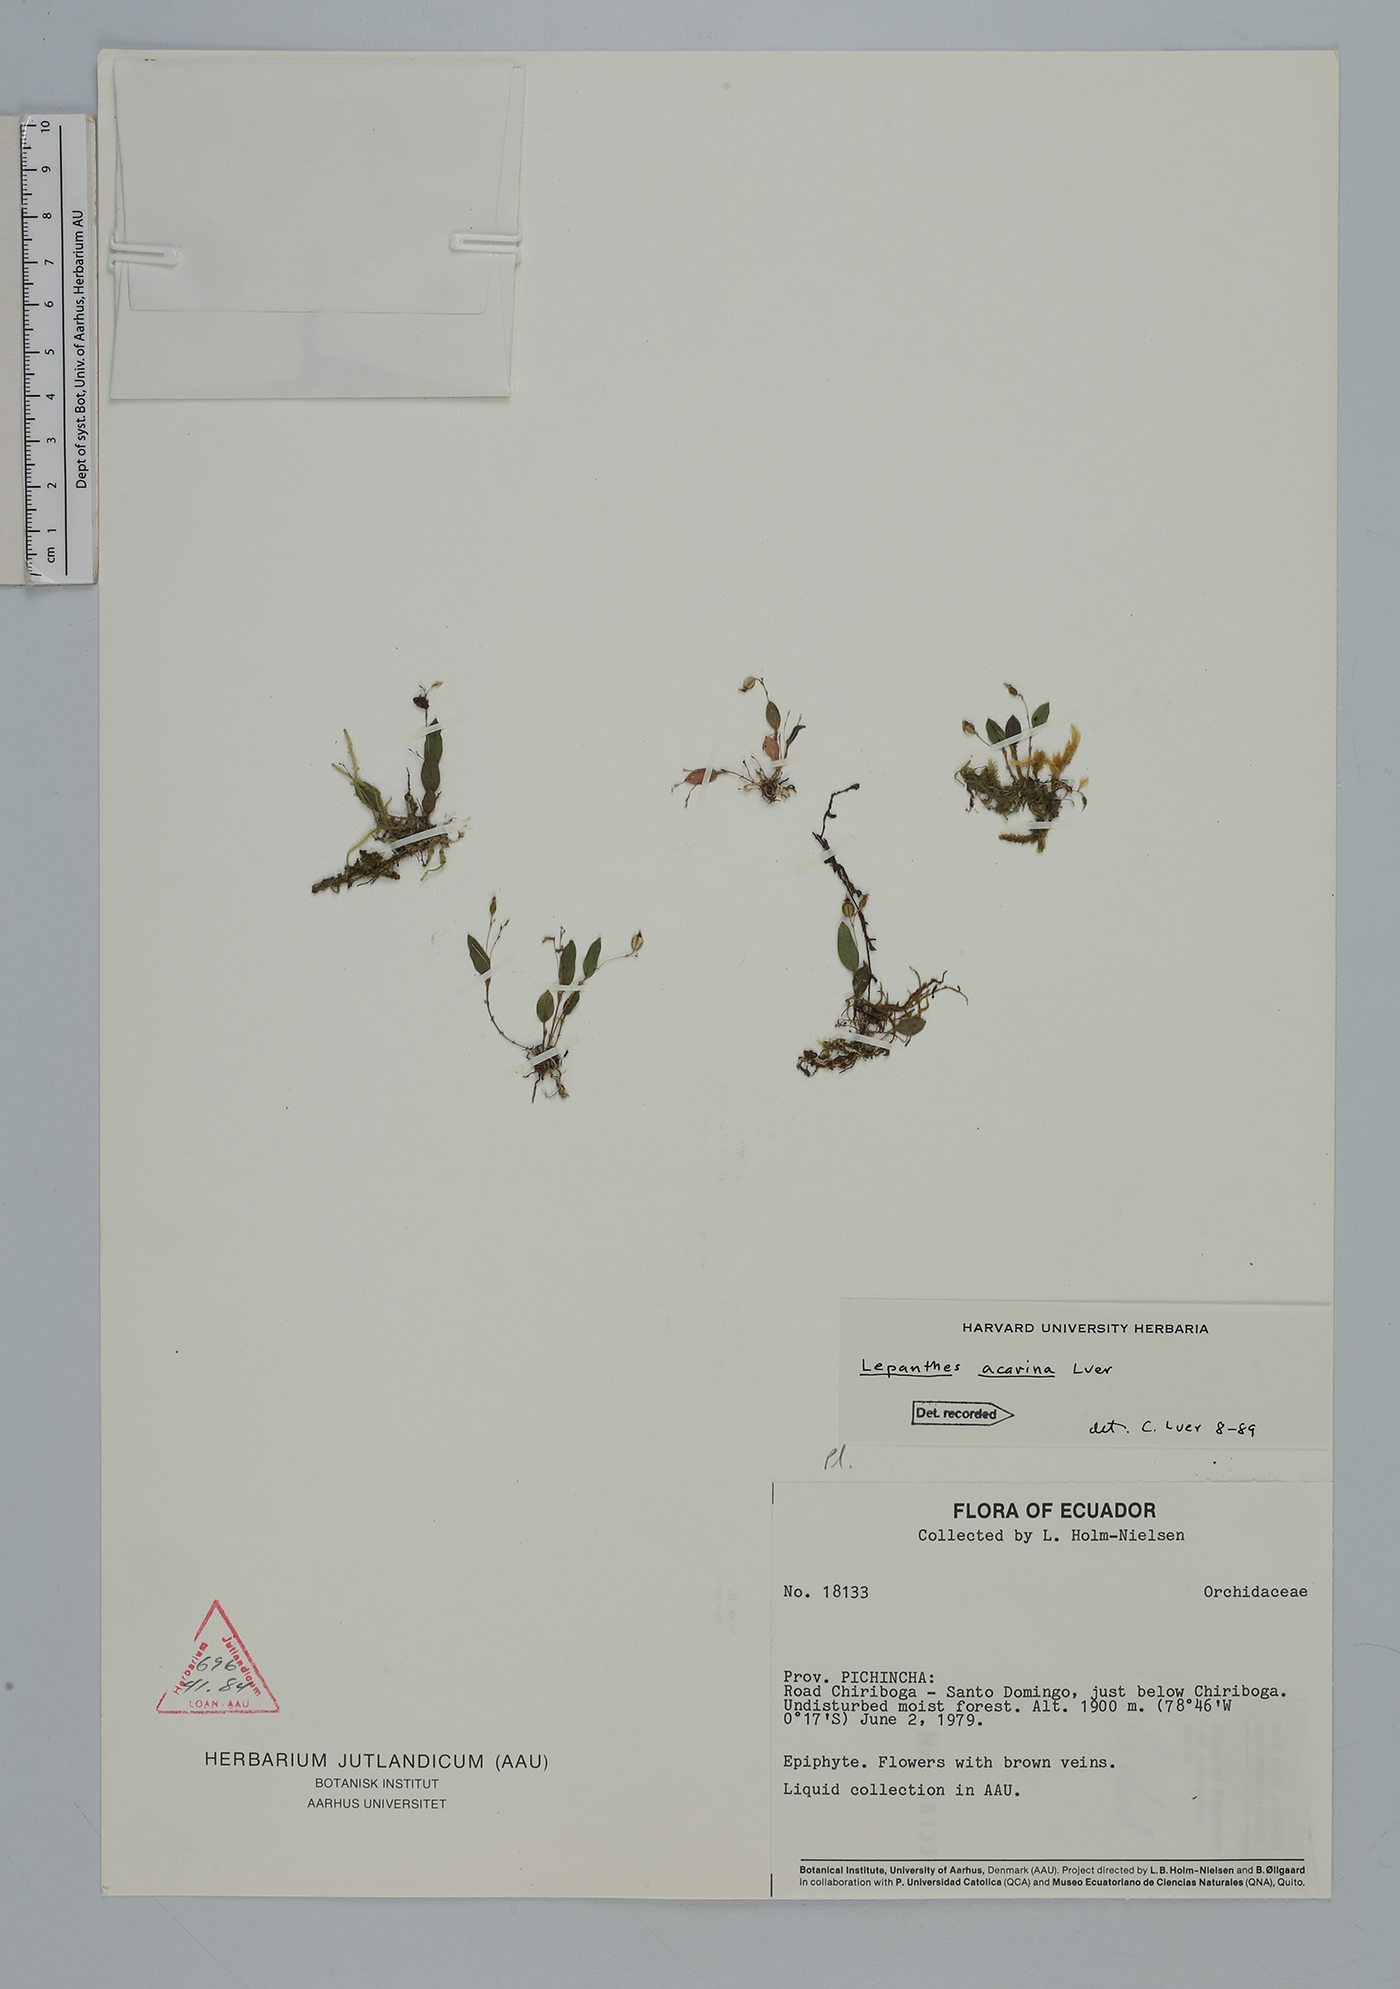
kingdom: Plantae
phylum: Tracheophyta
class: Liliopsida
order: Asparagales
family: Orchidaceae
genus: Lepanthes
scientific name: Lepanthes acarina
